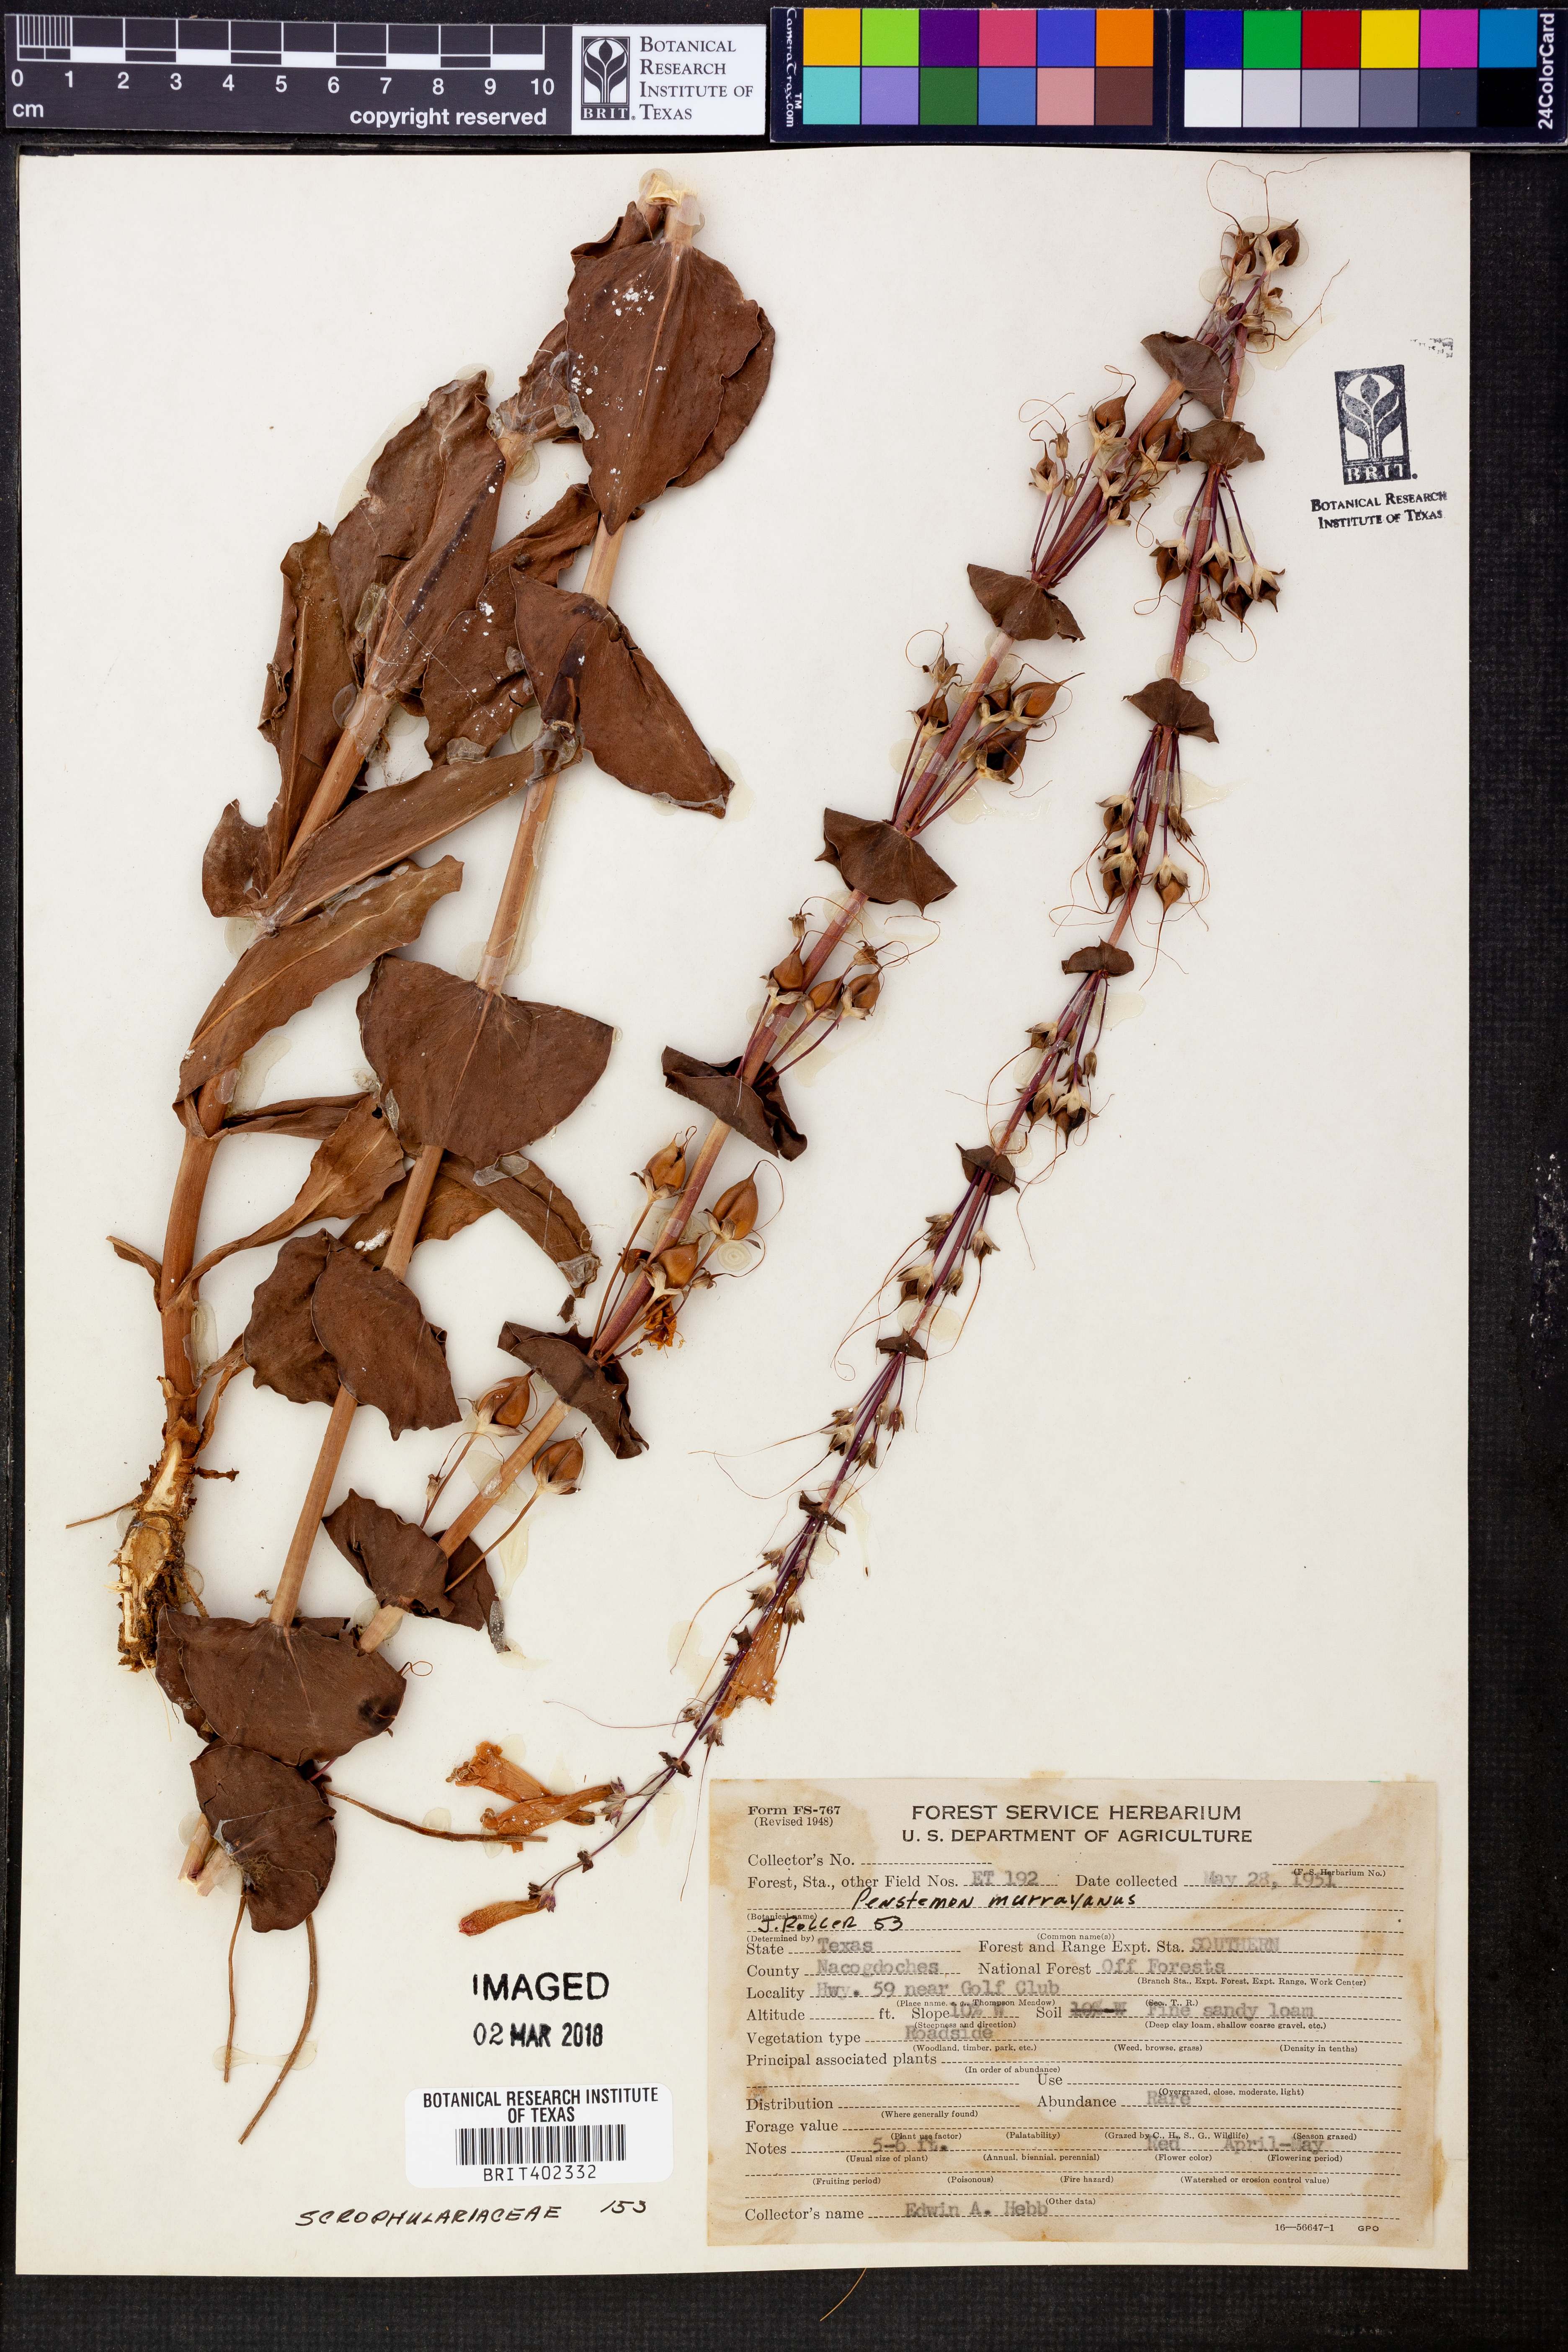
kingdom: Plantae
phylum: Tracheophyta
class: Magnoliopsida
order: Lamiales
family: Plantaginaceae
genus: Penstemon
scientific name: Penstemon murrayanus
